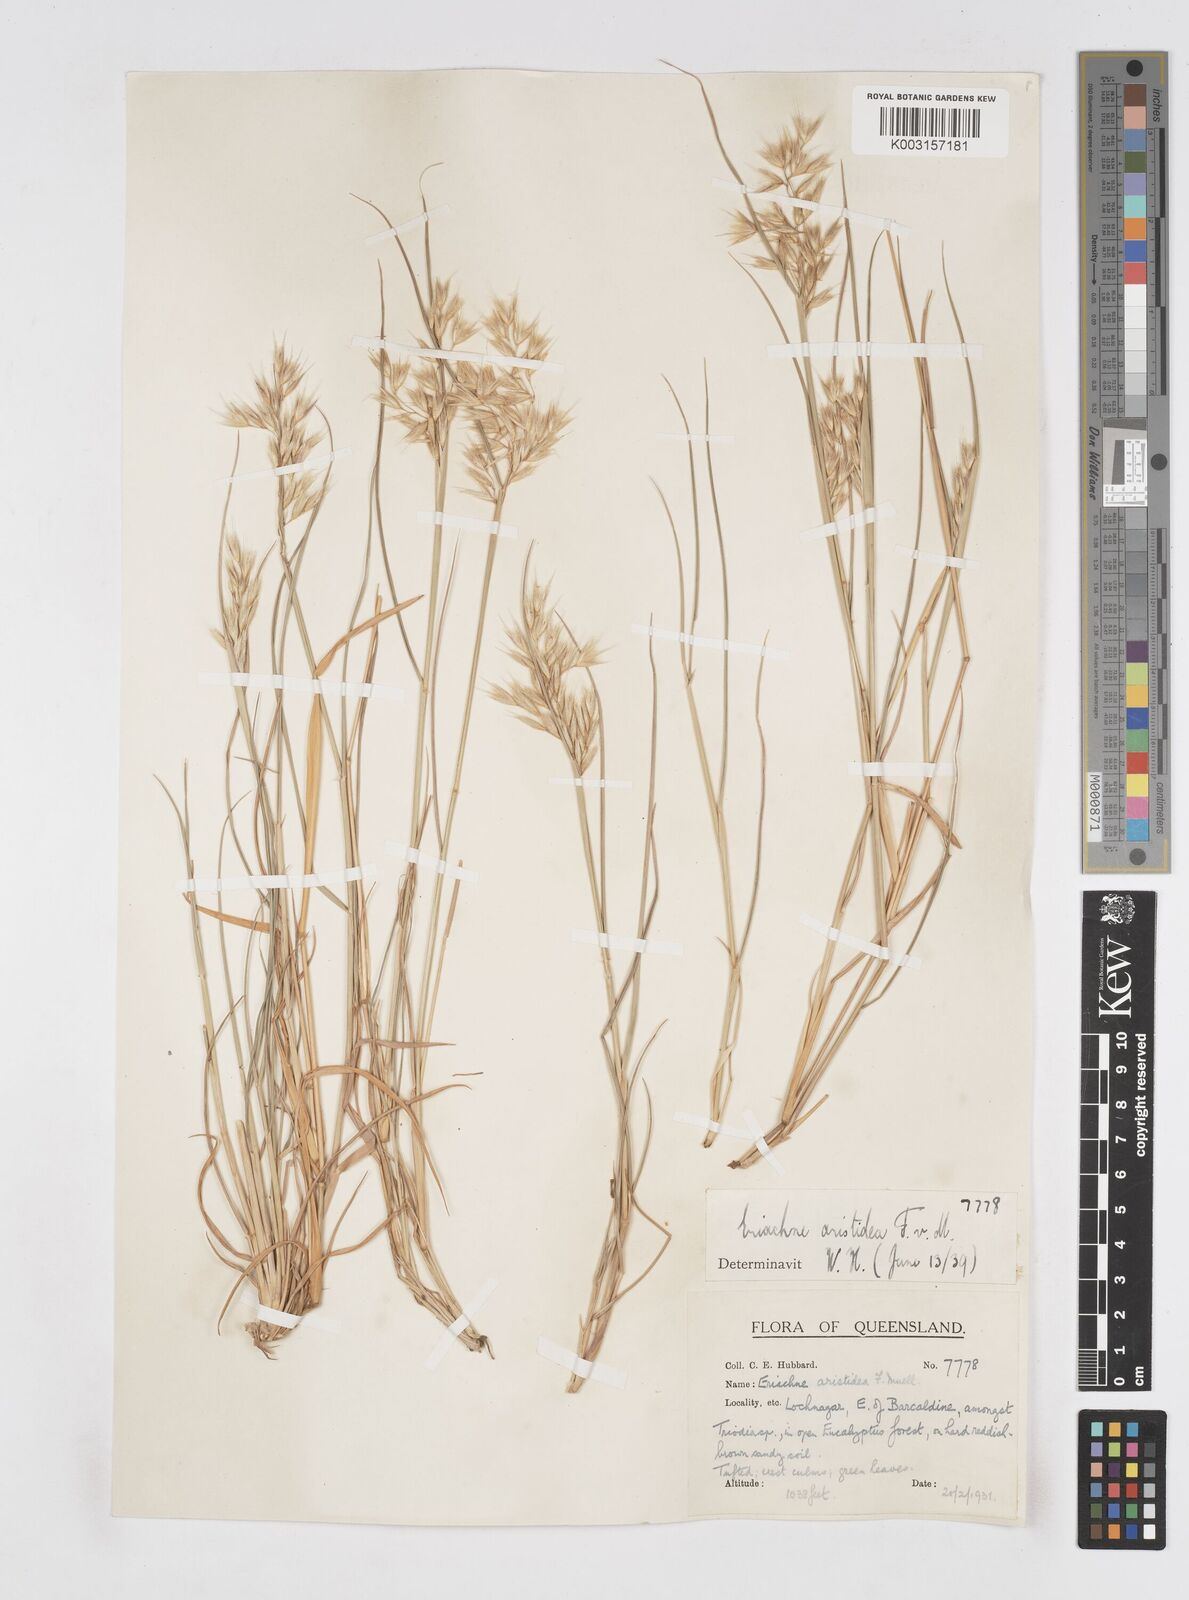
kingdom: Plantae
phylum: Tracheophyta
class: Liliopsida
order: Poales
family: Poaceae
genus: Eriachne
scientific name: Eriachne aristidea
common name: Three-awn wanderrie grass
